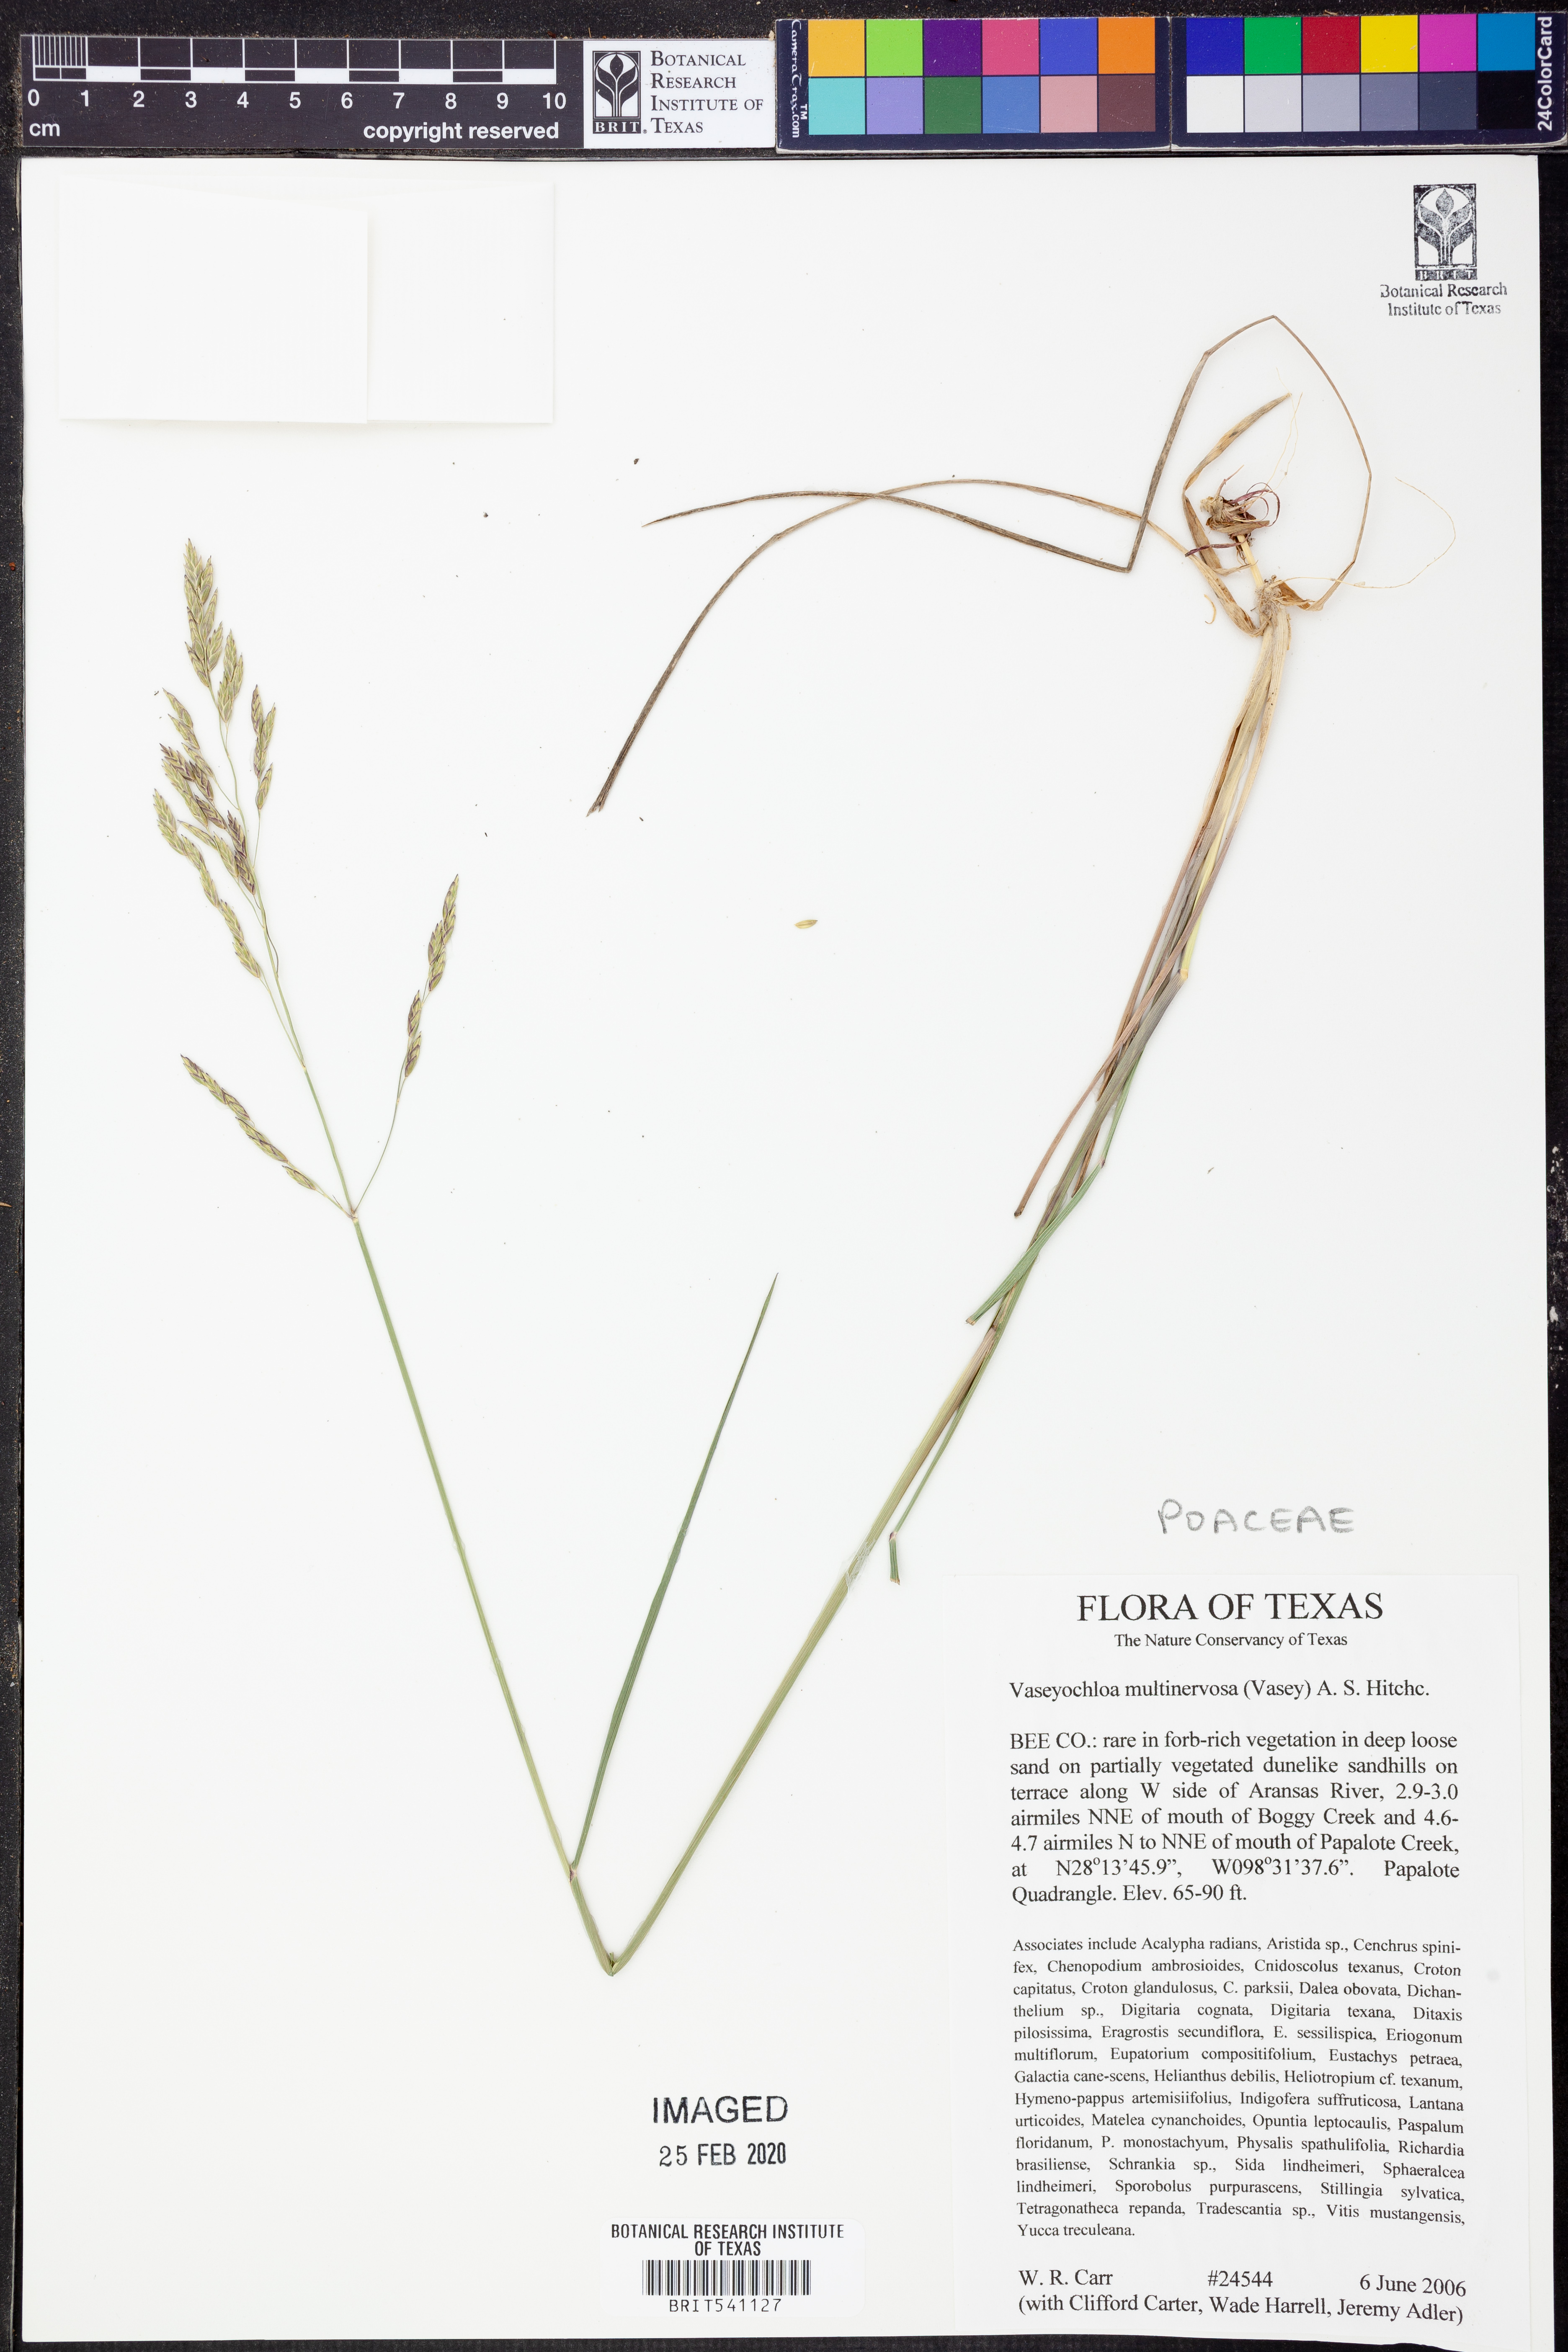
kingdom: Plantae
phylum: Tracheophyta
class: Liliopsida
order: Poales
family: Poaceae
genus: Vaseyochloa
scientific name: Vaseyochloa multinervosa
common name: Texas grass
